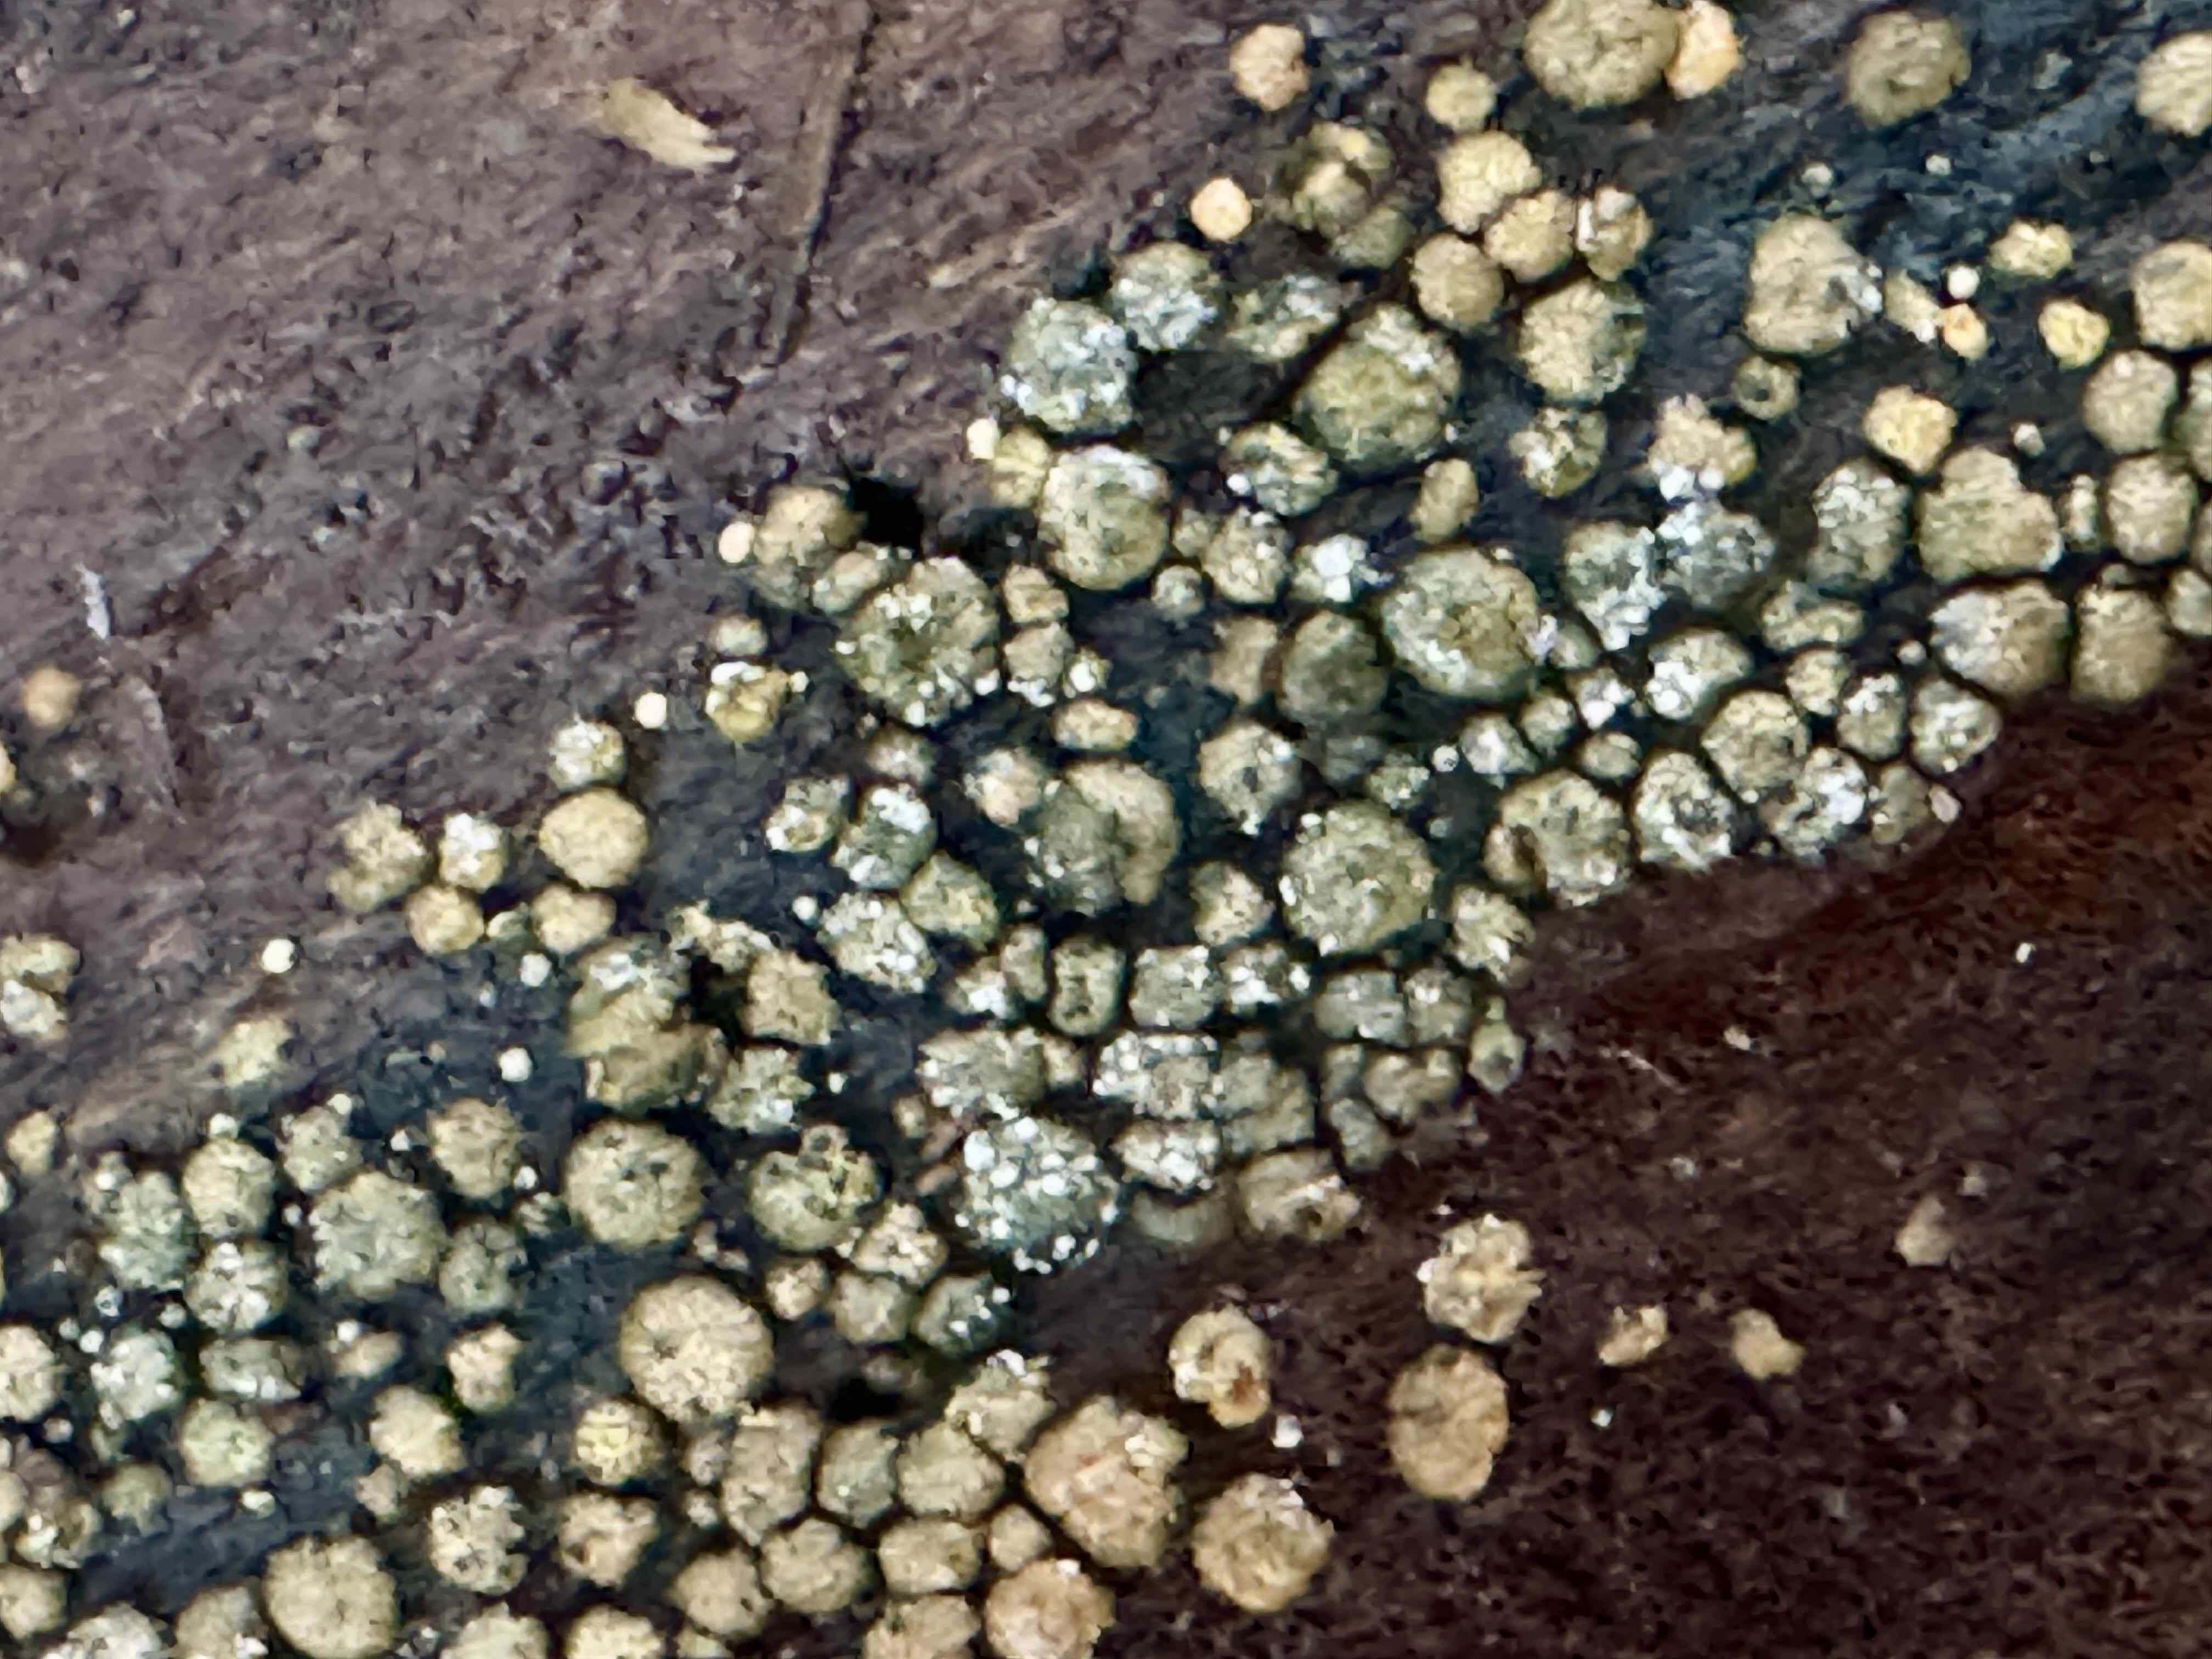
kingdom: Fungi
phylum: Ascomycota
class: Sordariomycetes
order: Hypocreales
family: Hypocreaceae
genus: Trichoderma
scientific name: Trichoderma strictipile
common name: grønprikket kødkerne
